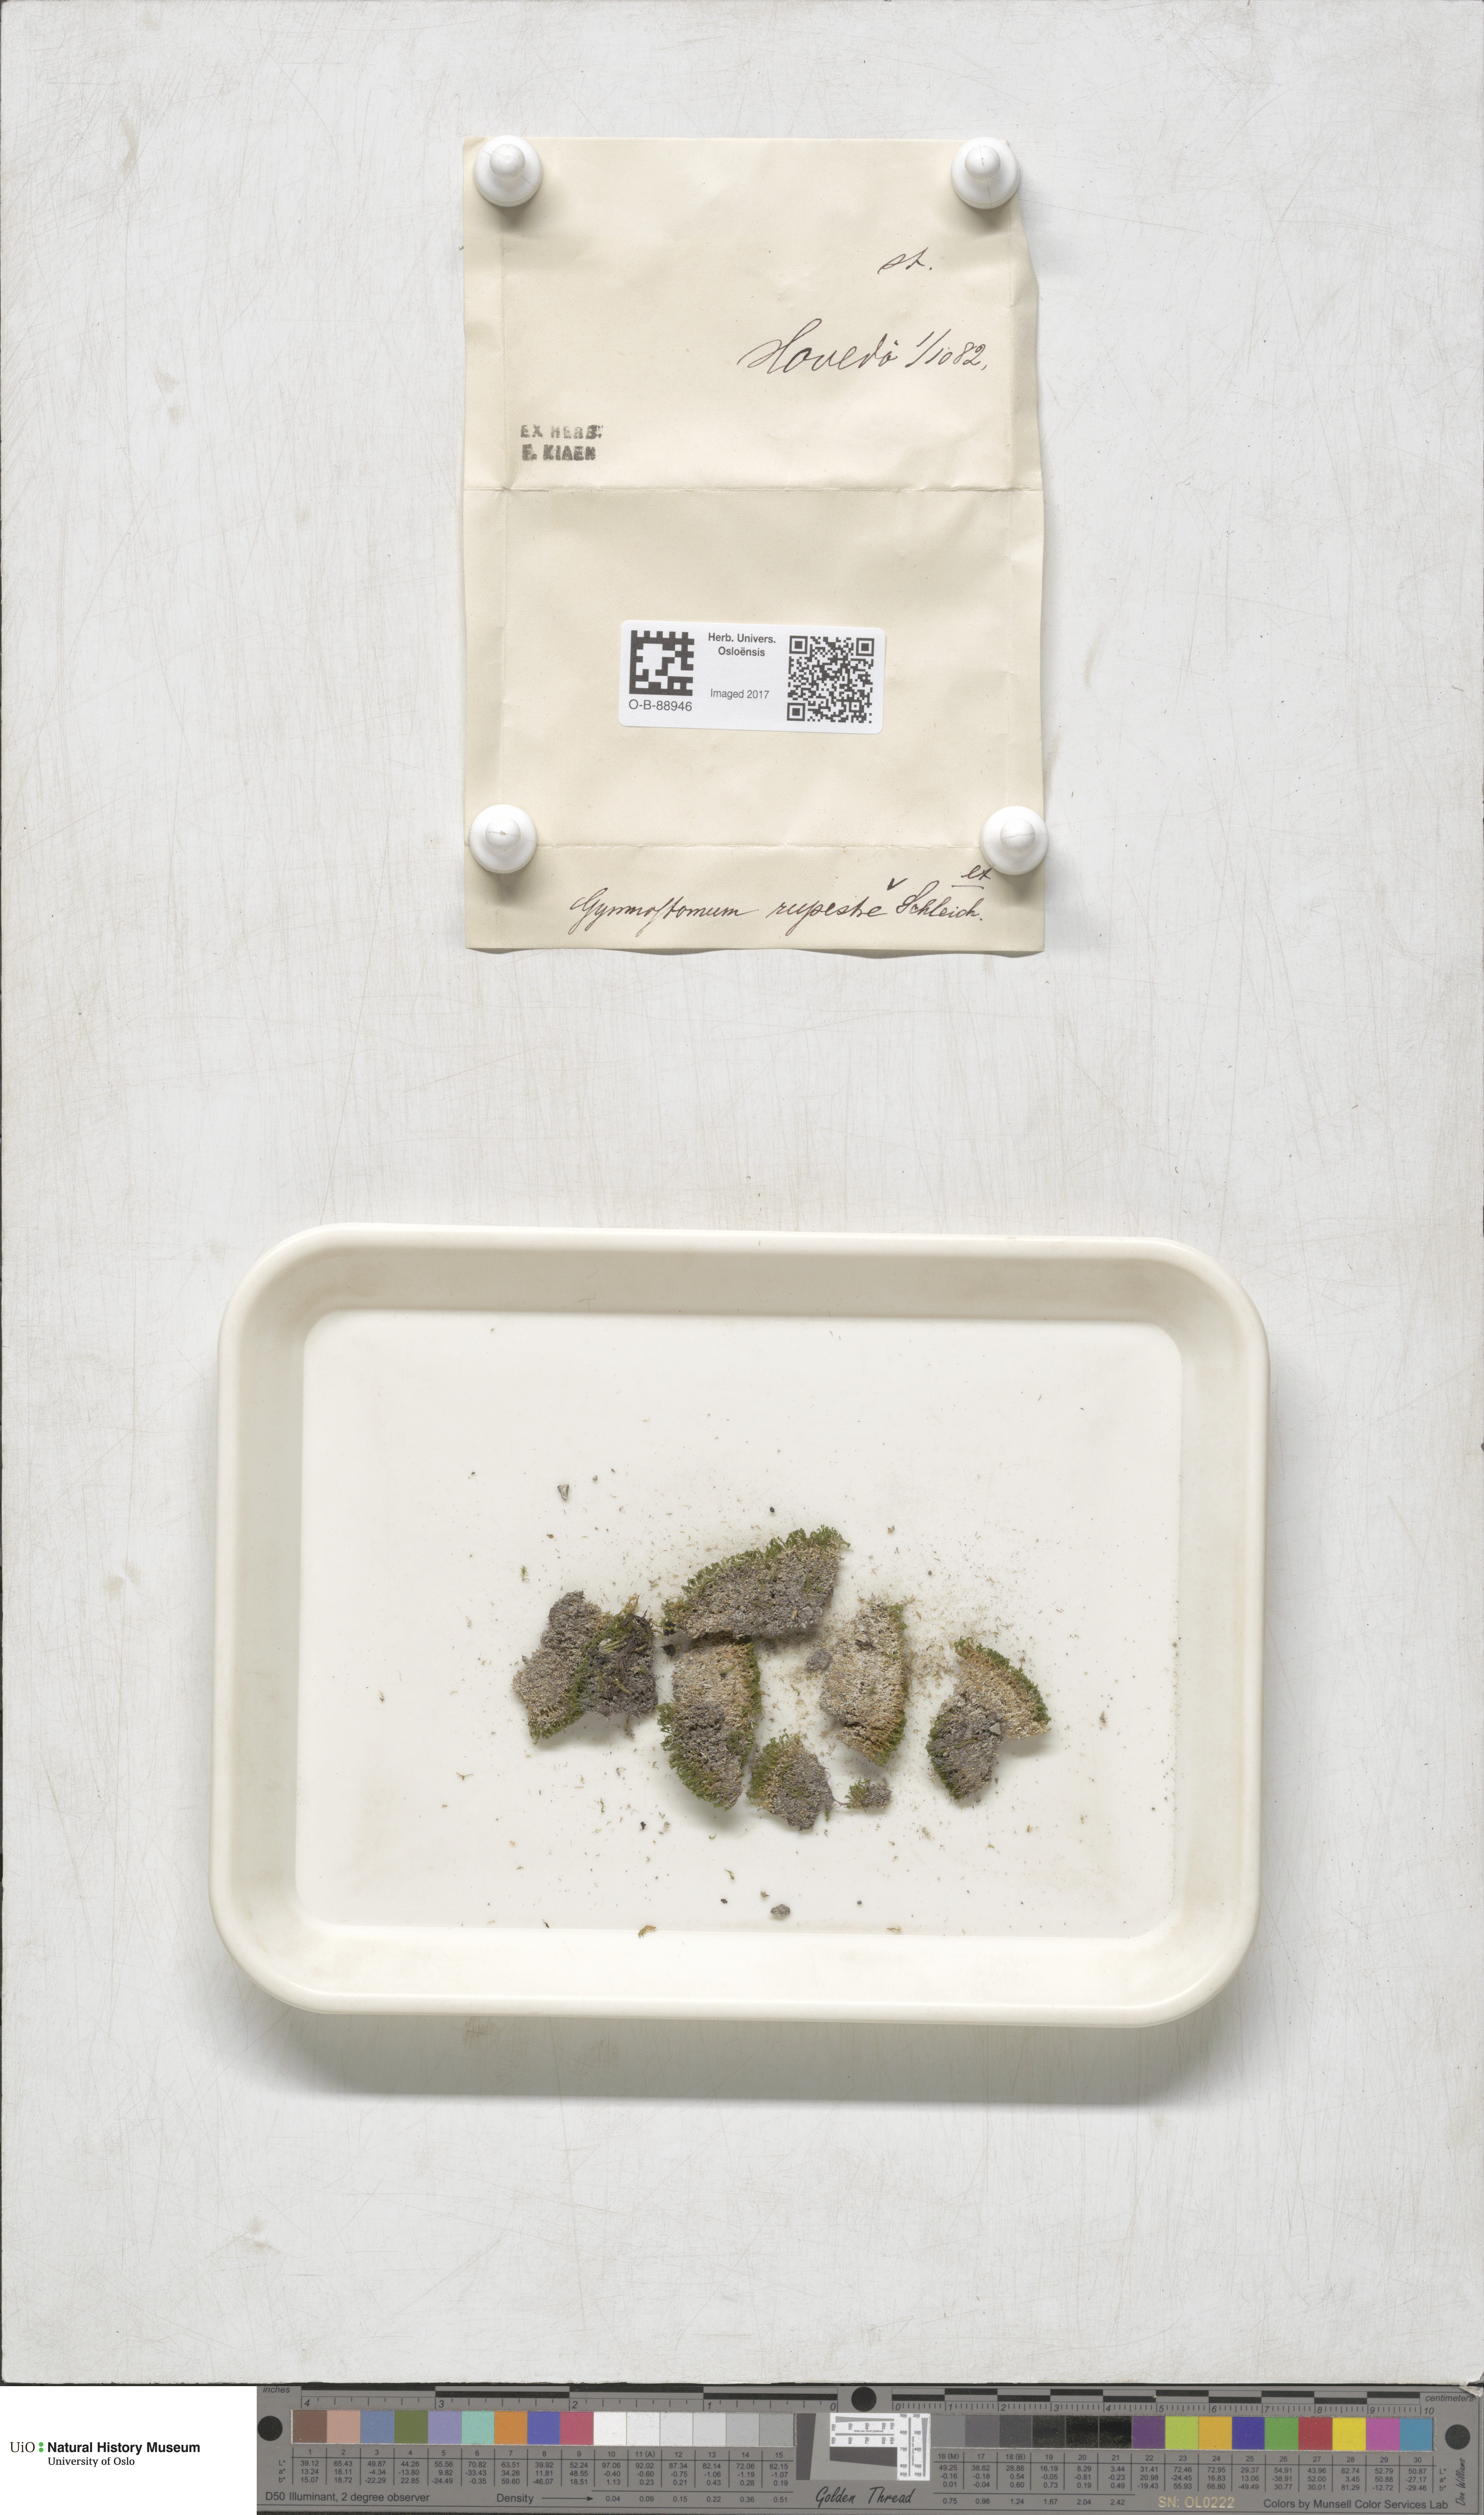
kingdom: Plantae
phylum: Bryophyta
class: Bryopsida
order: Pottiales
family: Pottiaceae
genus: Gymnostomum
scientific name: Gymnostomum aeruginosum
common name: Verdigris tufa-moss
